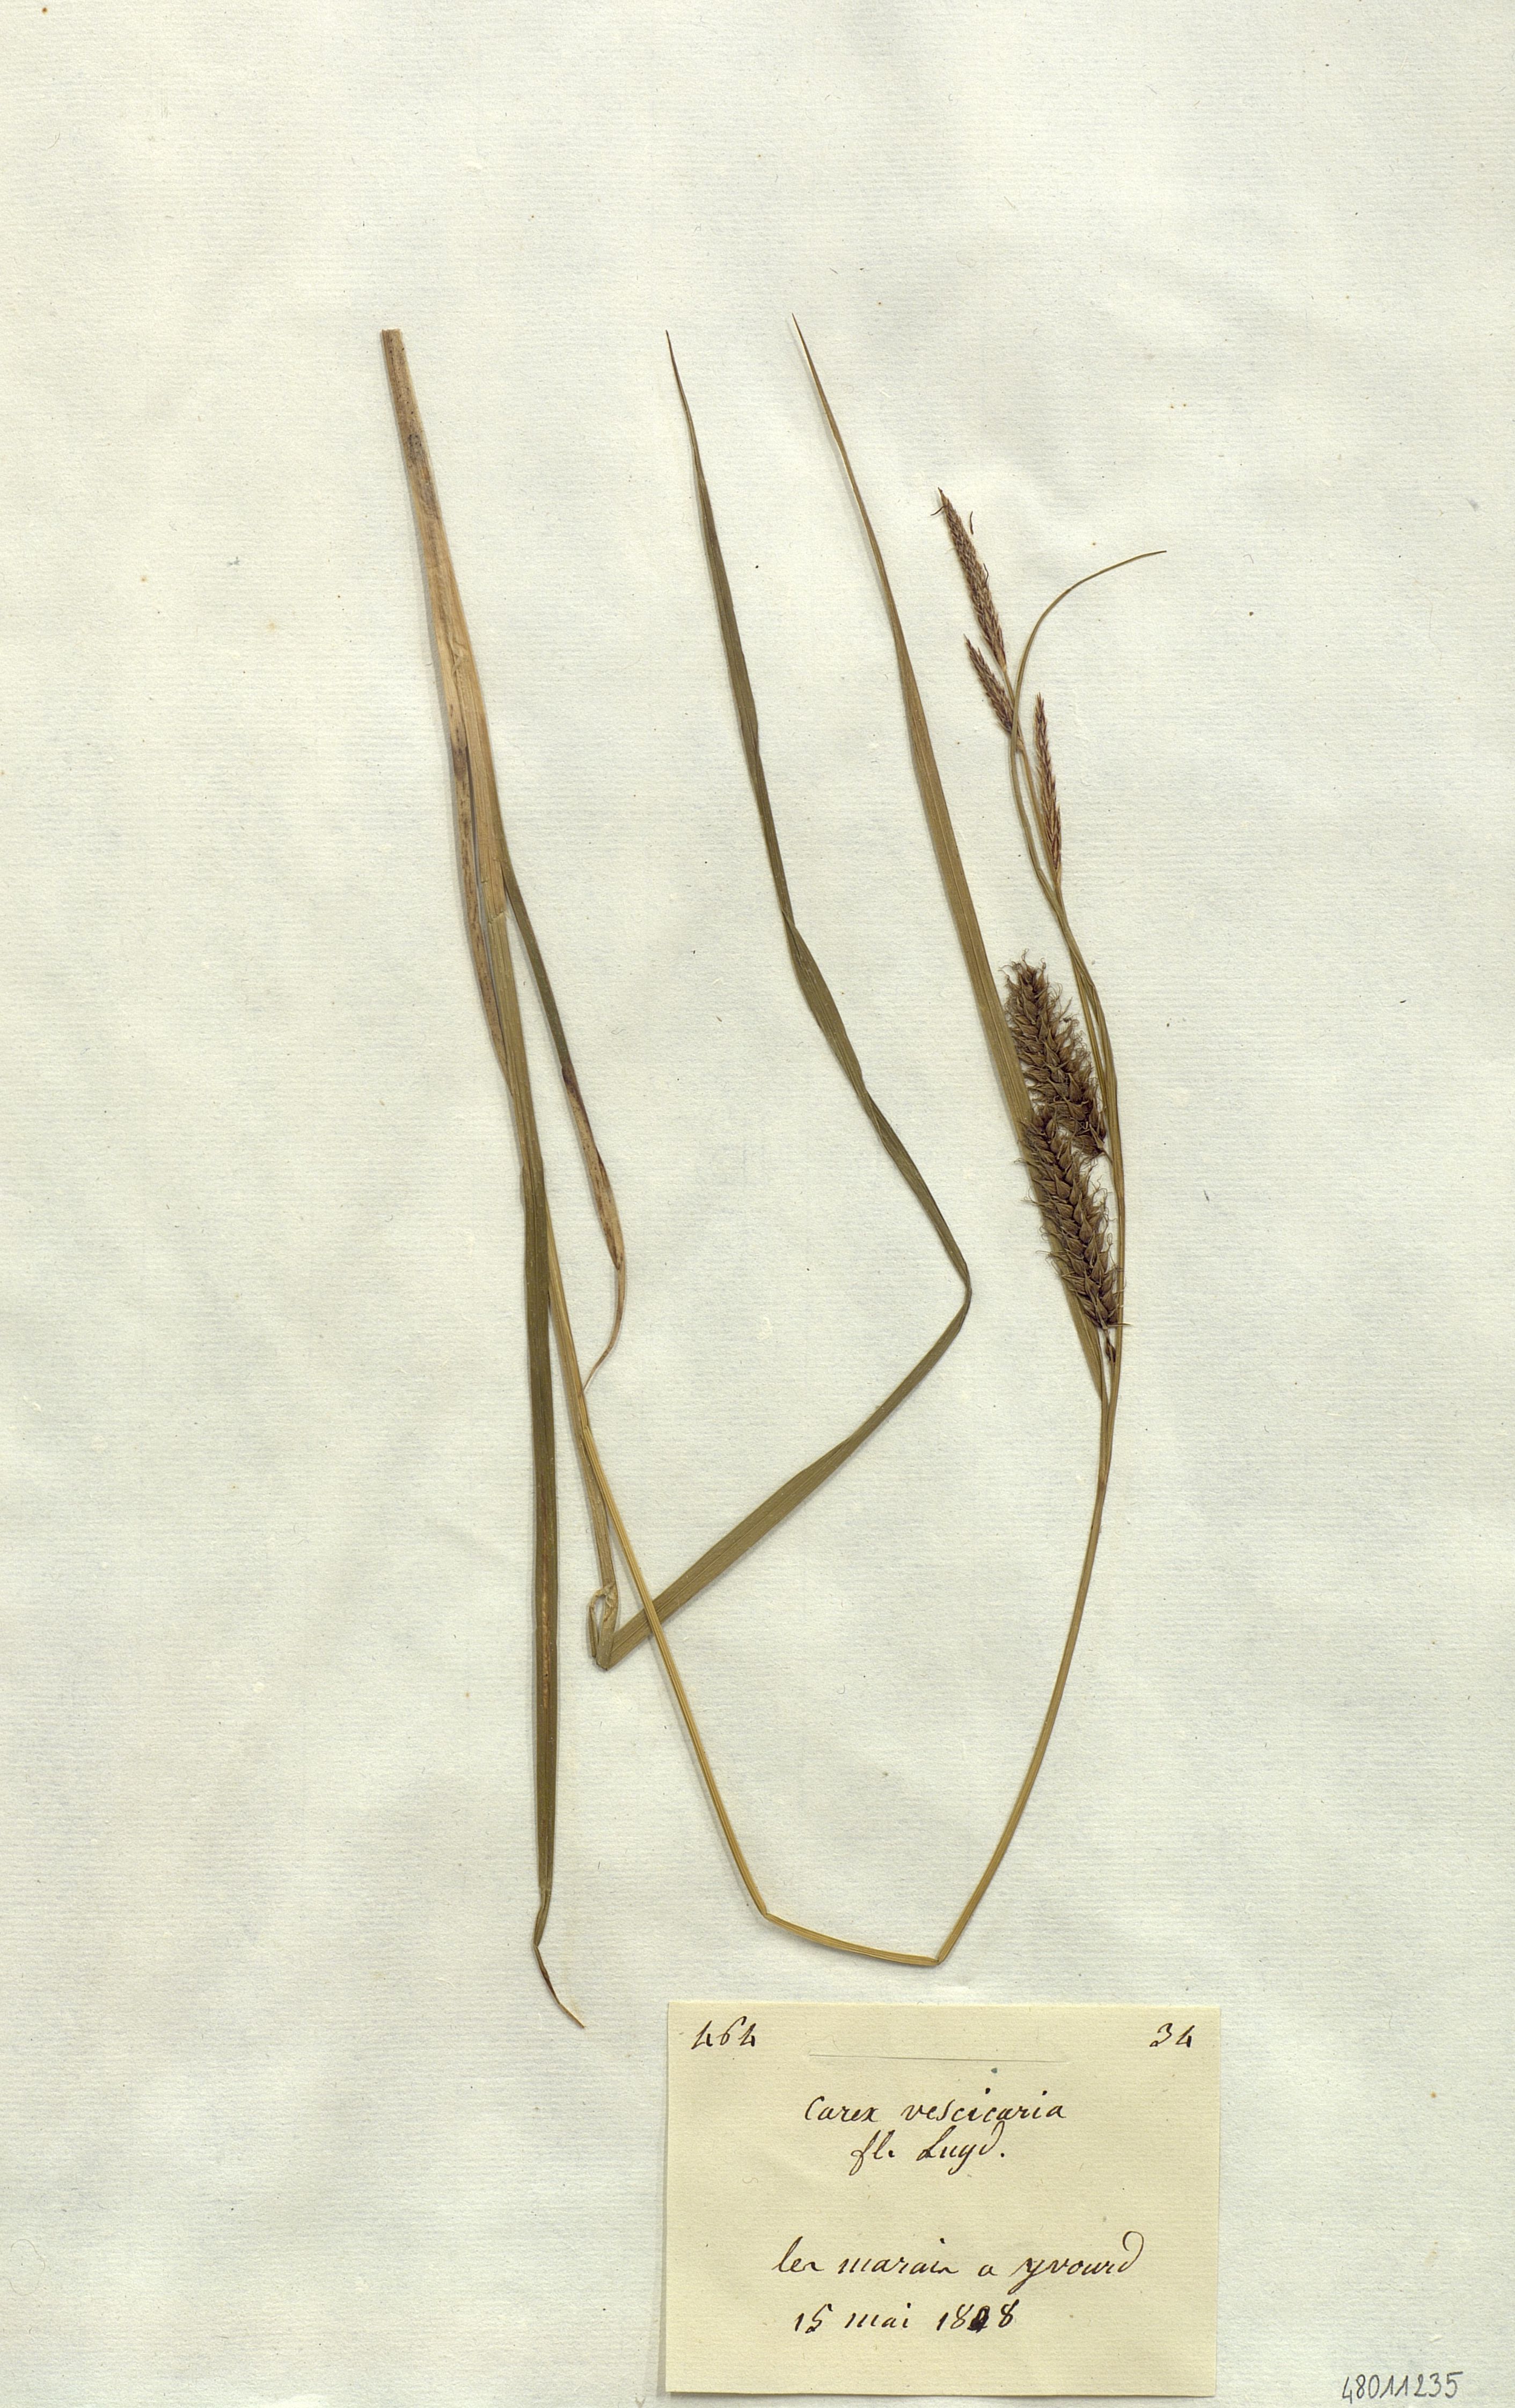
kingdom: Plantae
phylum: Tracheophyta
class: Liliopsida
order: Poales
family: Cyperaceae
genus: Carex
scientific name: Carex vesicaria
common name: Bladder-sedge
